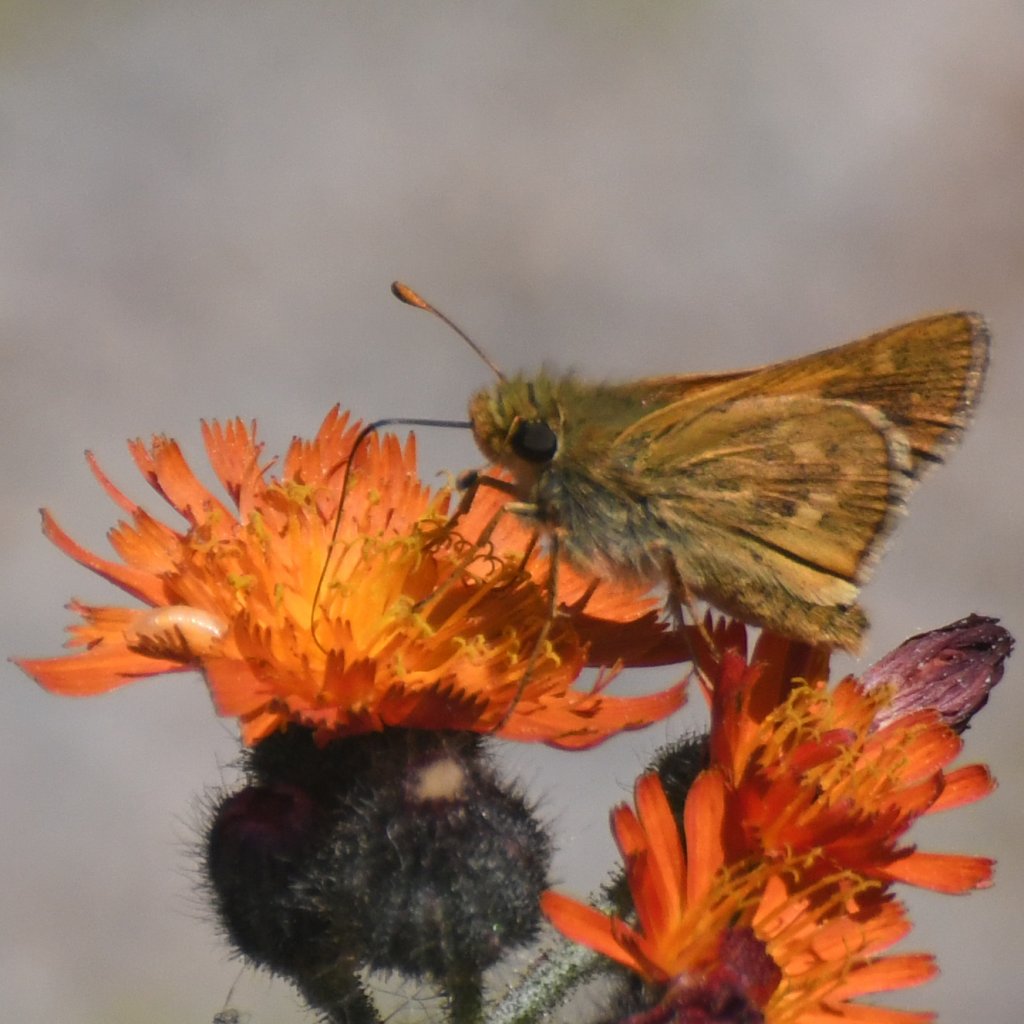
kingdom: Animalia
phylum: Arthropoda
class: Insecta
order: Lepidoptera
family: Hesperiidae
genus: Hesperia
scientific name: Hesperia sassacus
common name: Sassacus Skipper
